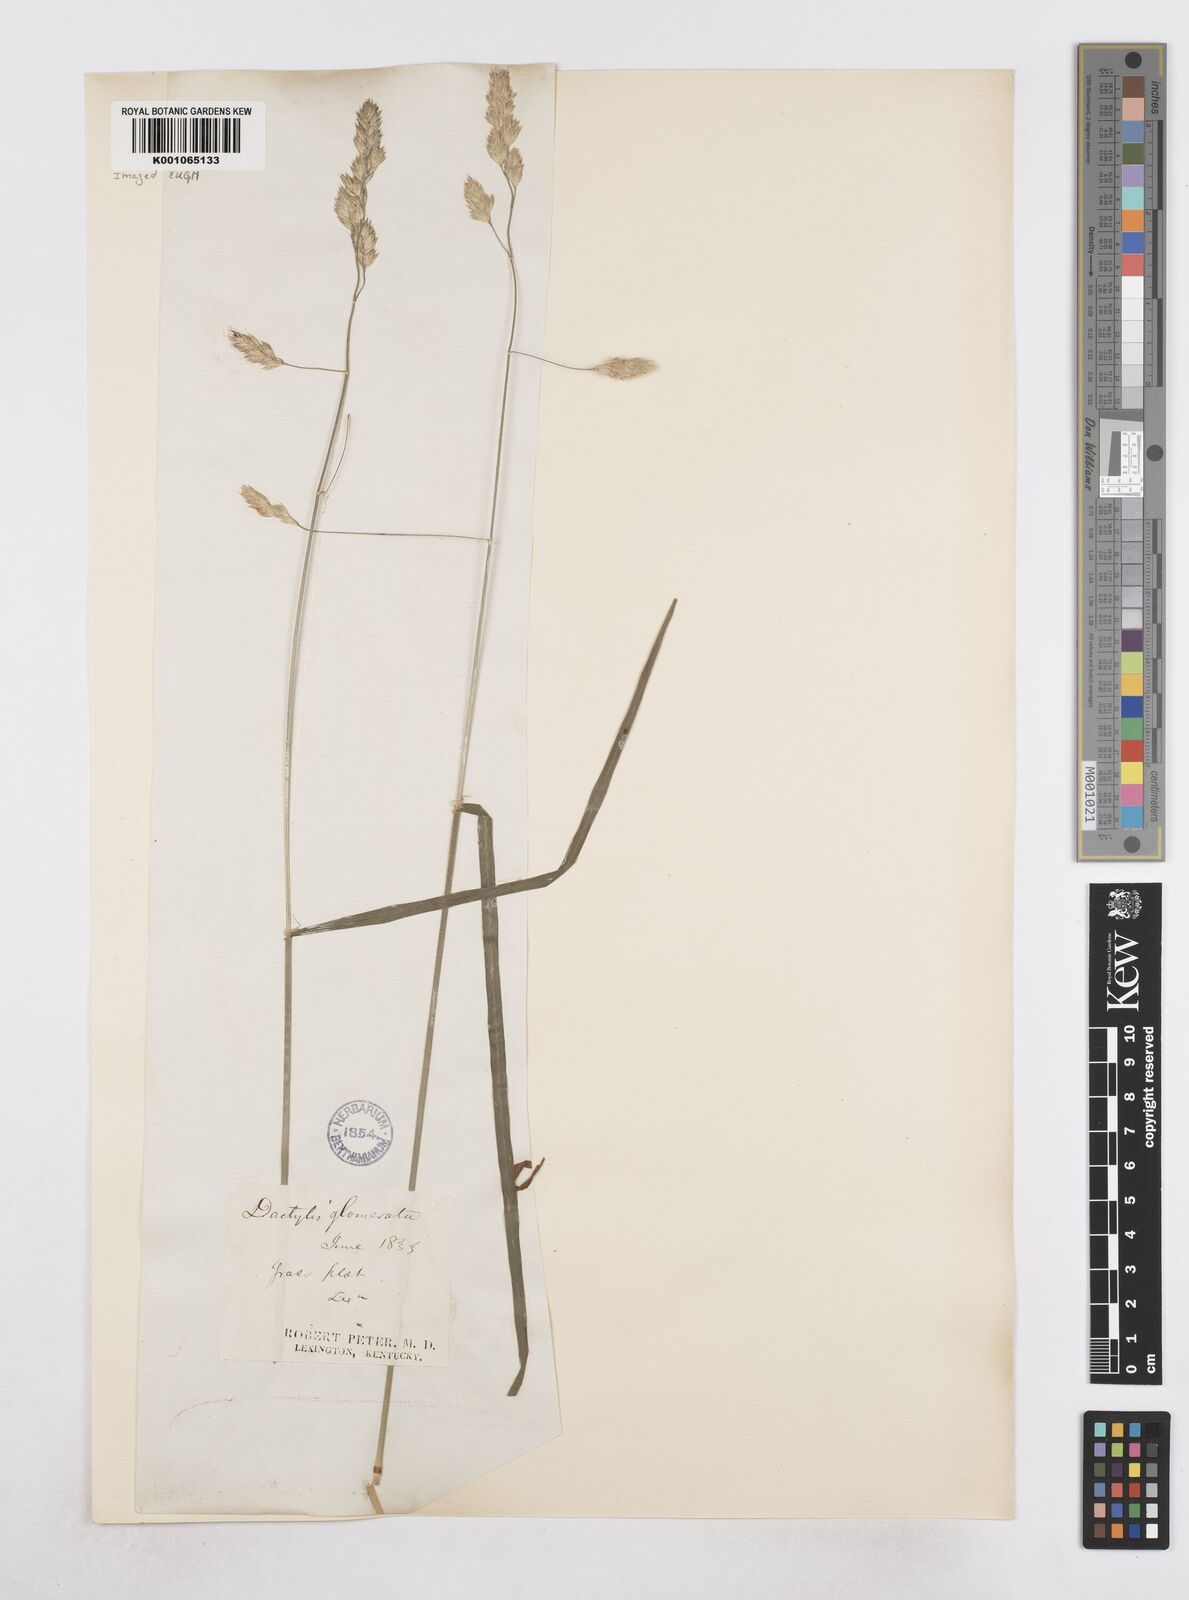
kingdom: Plantae
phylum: Tracheophyta
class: Liliopsida
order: Poales
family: Poaceae
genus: Dactylis
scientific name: Dactylis glomerata
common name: Orchardgrass
